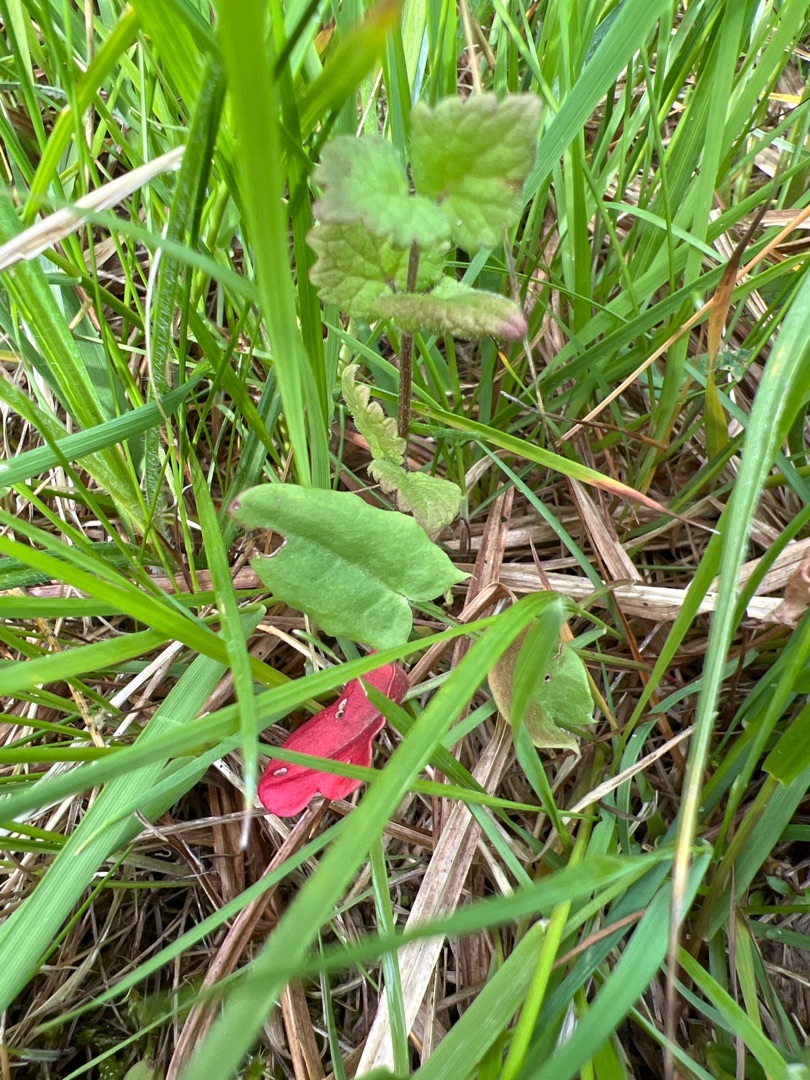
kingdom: Plantae
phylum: Tracheophyta
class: Magnoliopsida
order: Caryophyllales
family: Polygonaceae
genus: Rumex
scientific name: Rumex acetosa
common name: Almindelig syre
